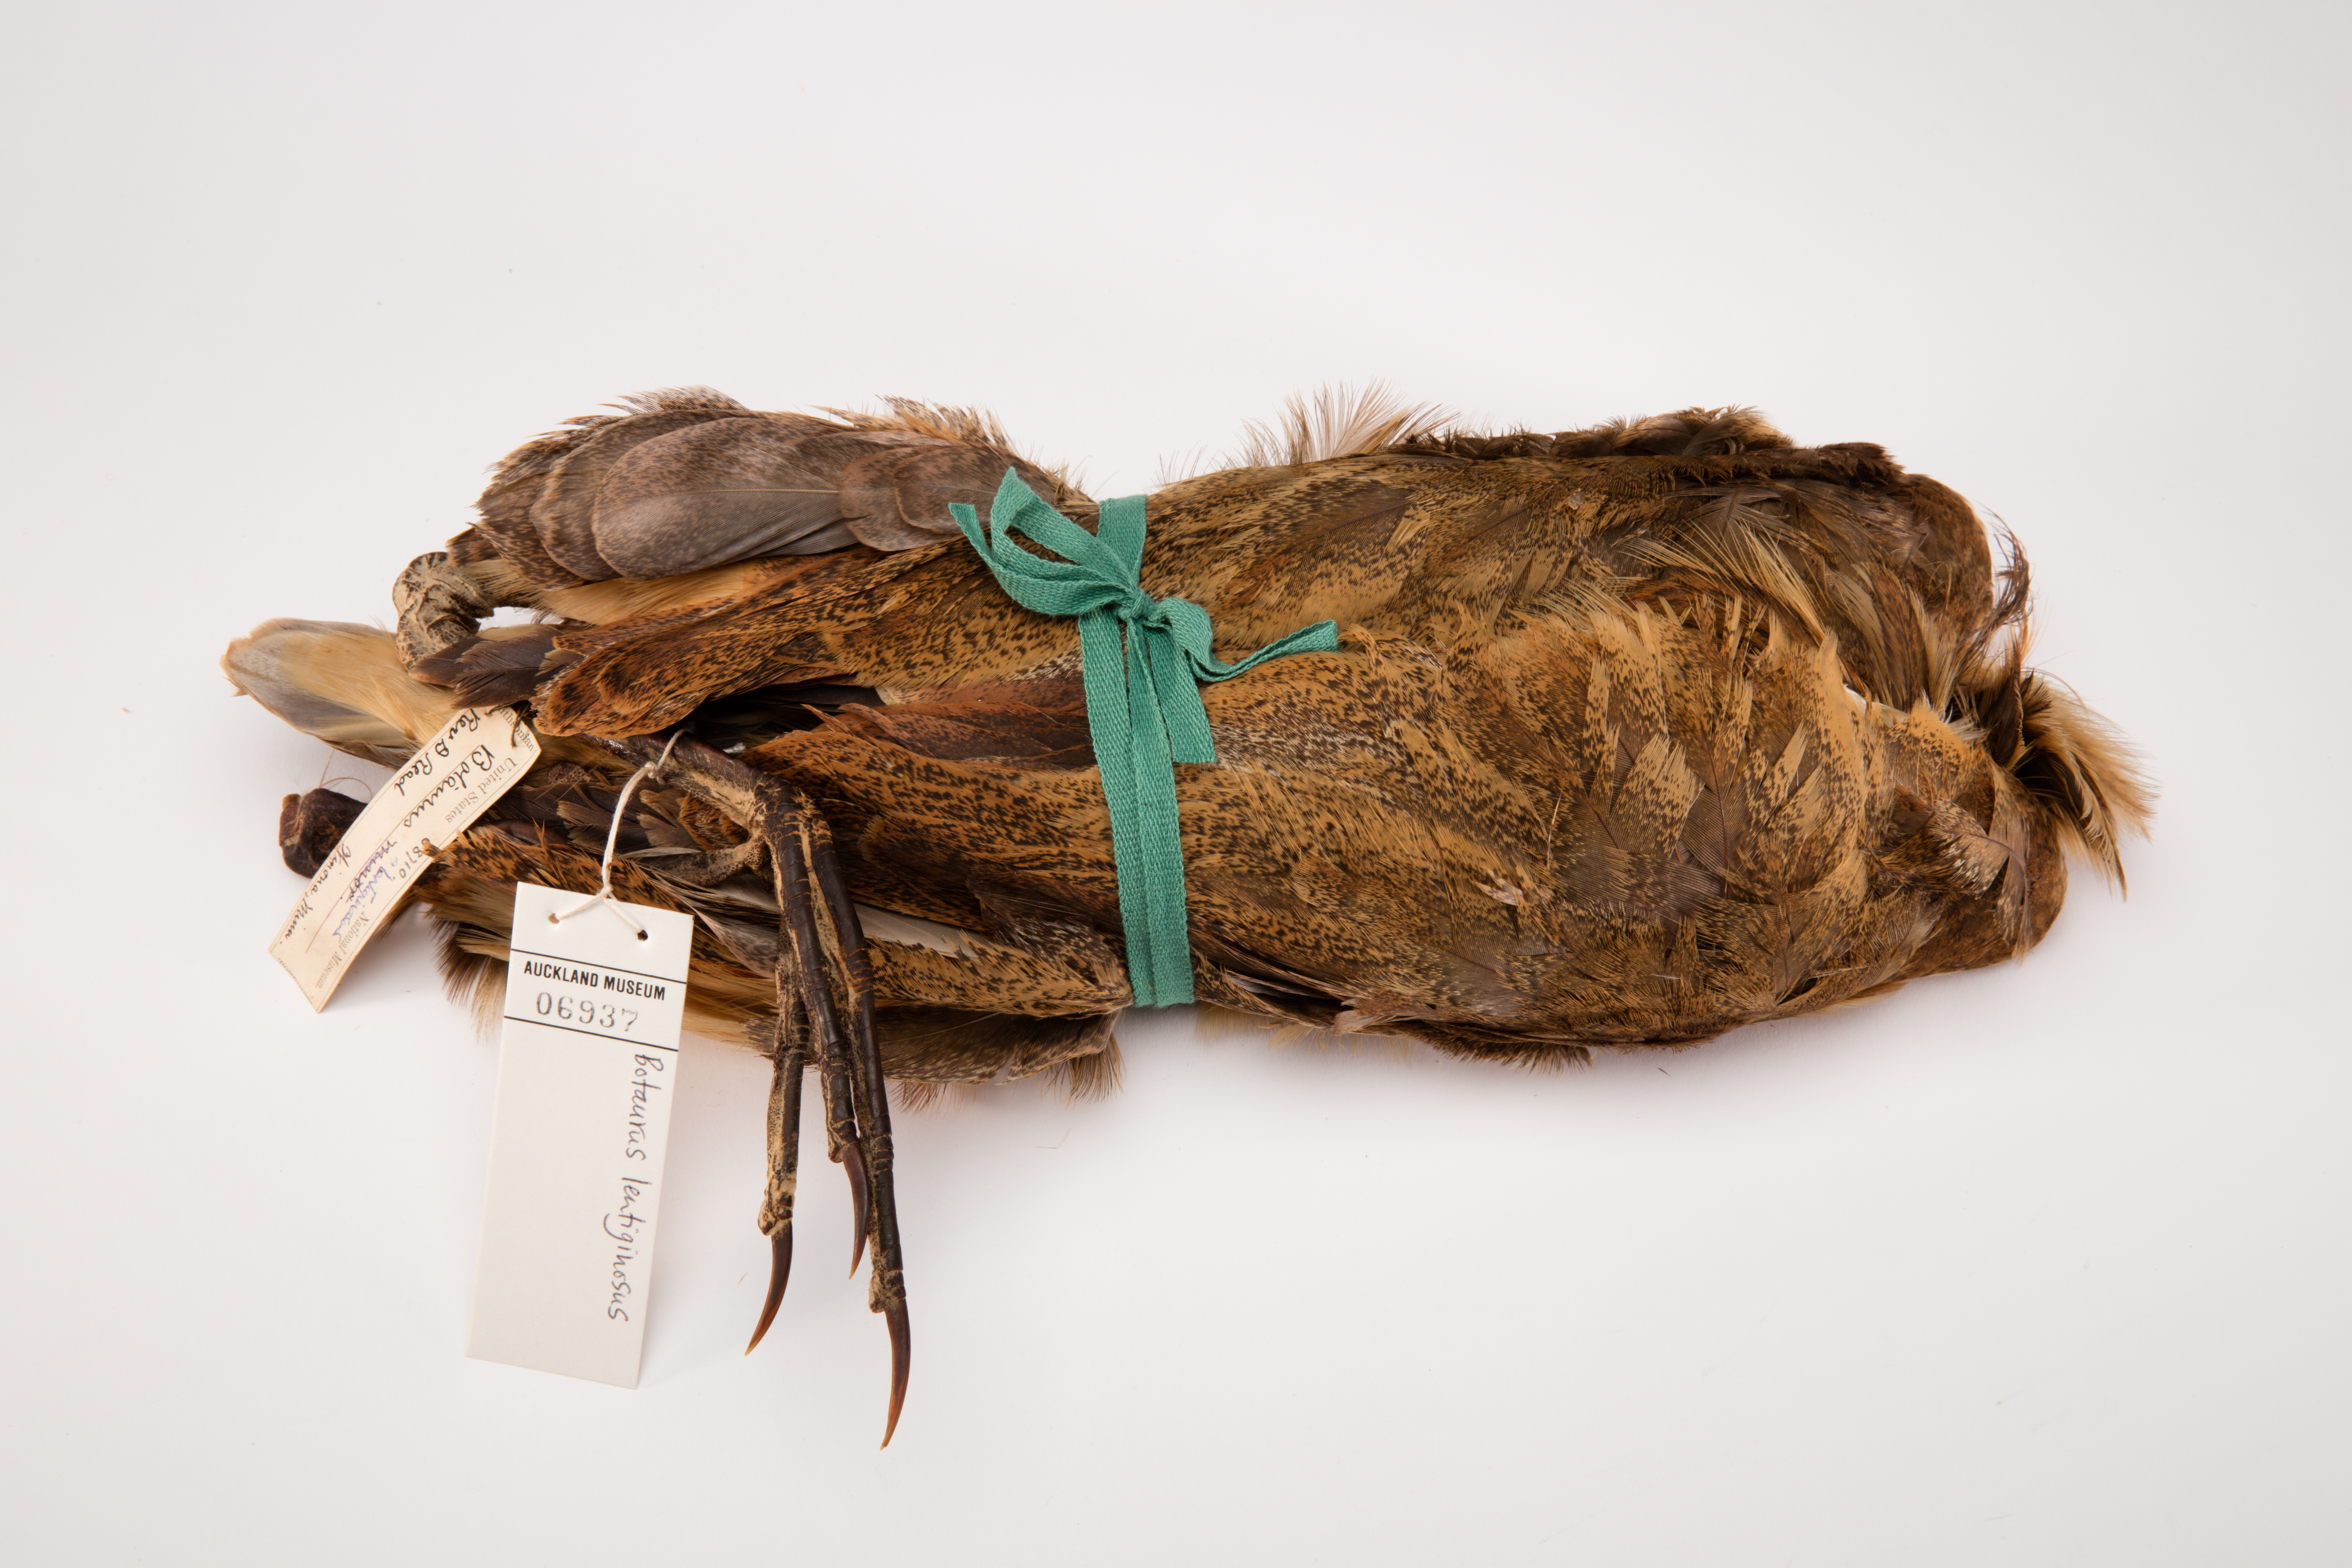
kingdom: Animalia
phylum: Chordata
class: Aves
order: Pelecaniformes
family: Ardeidae
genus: Botaurus
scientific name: Botaurus lentiginosus
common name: American bittern
